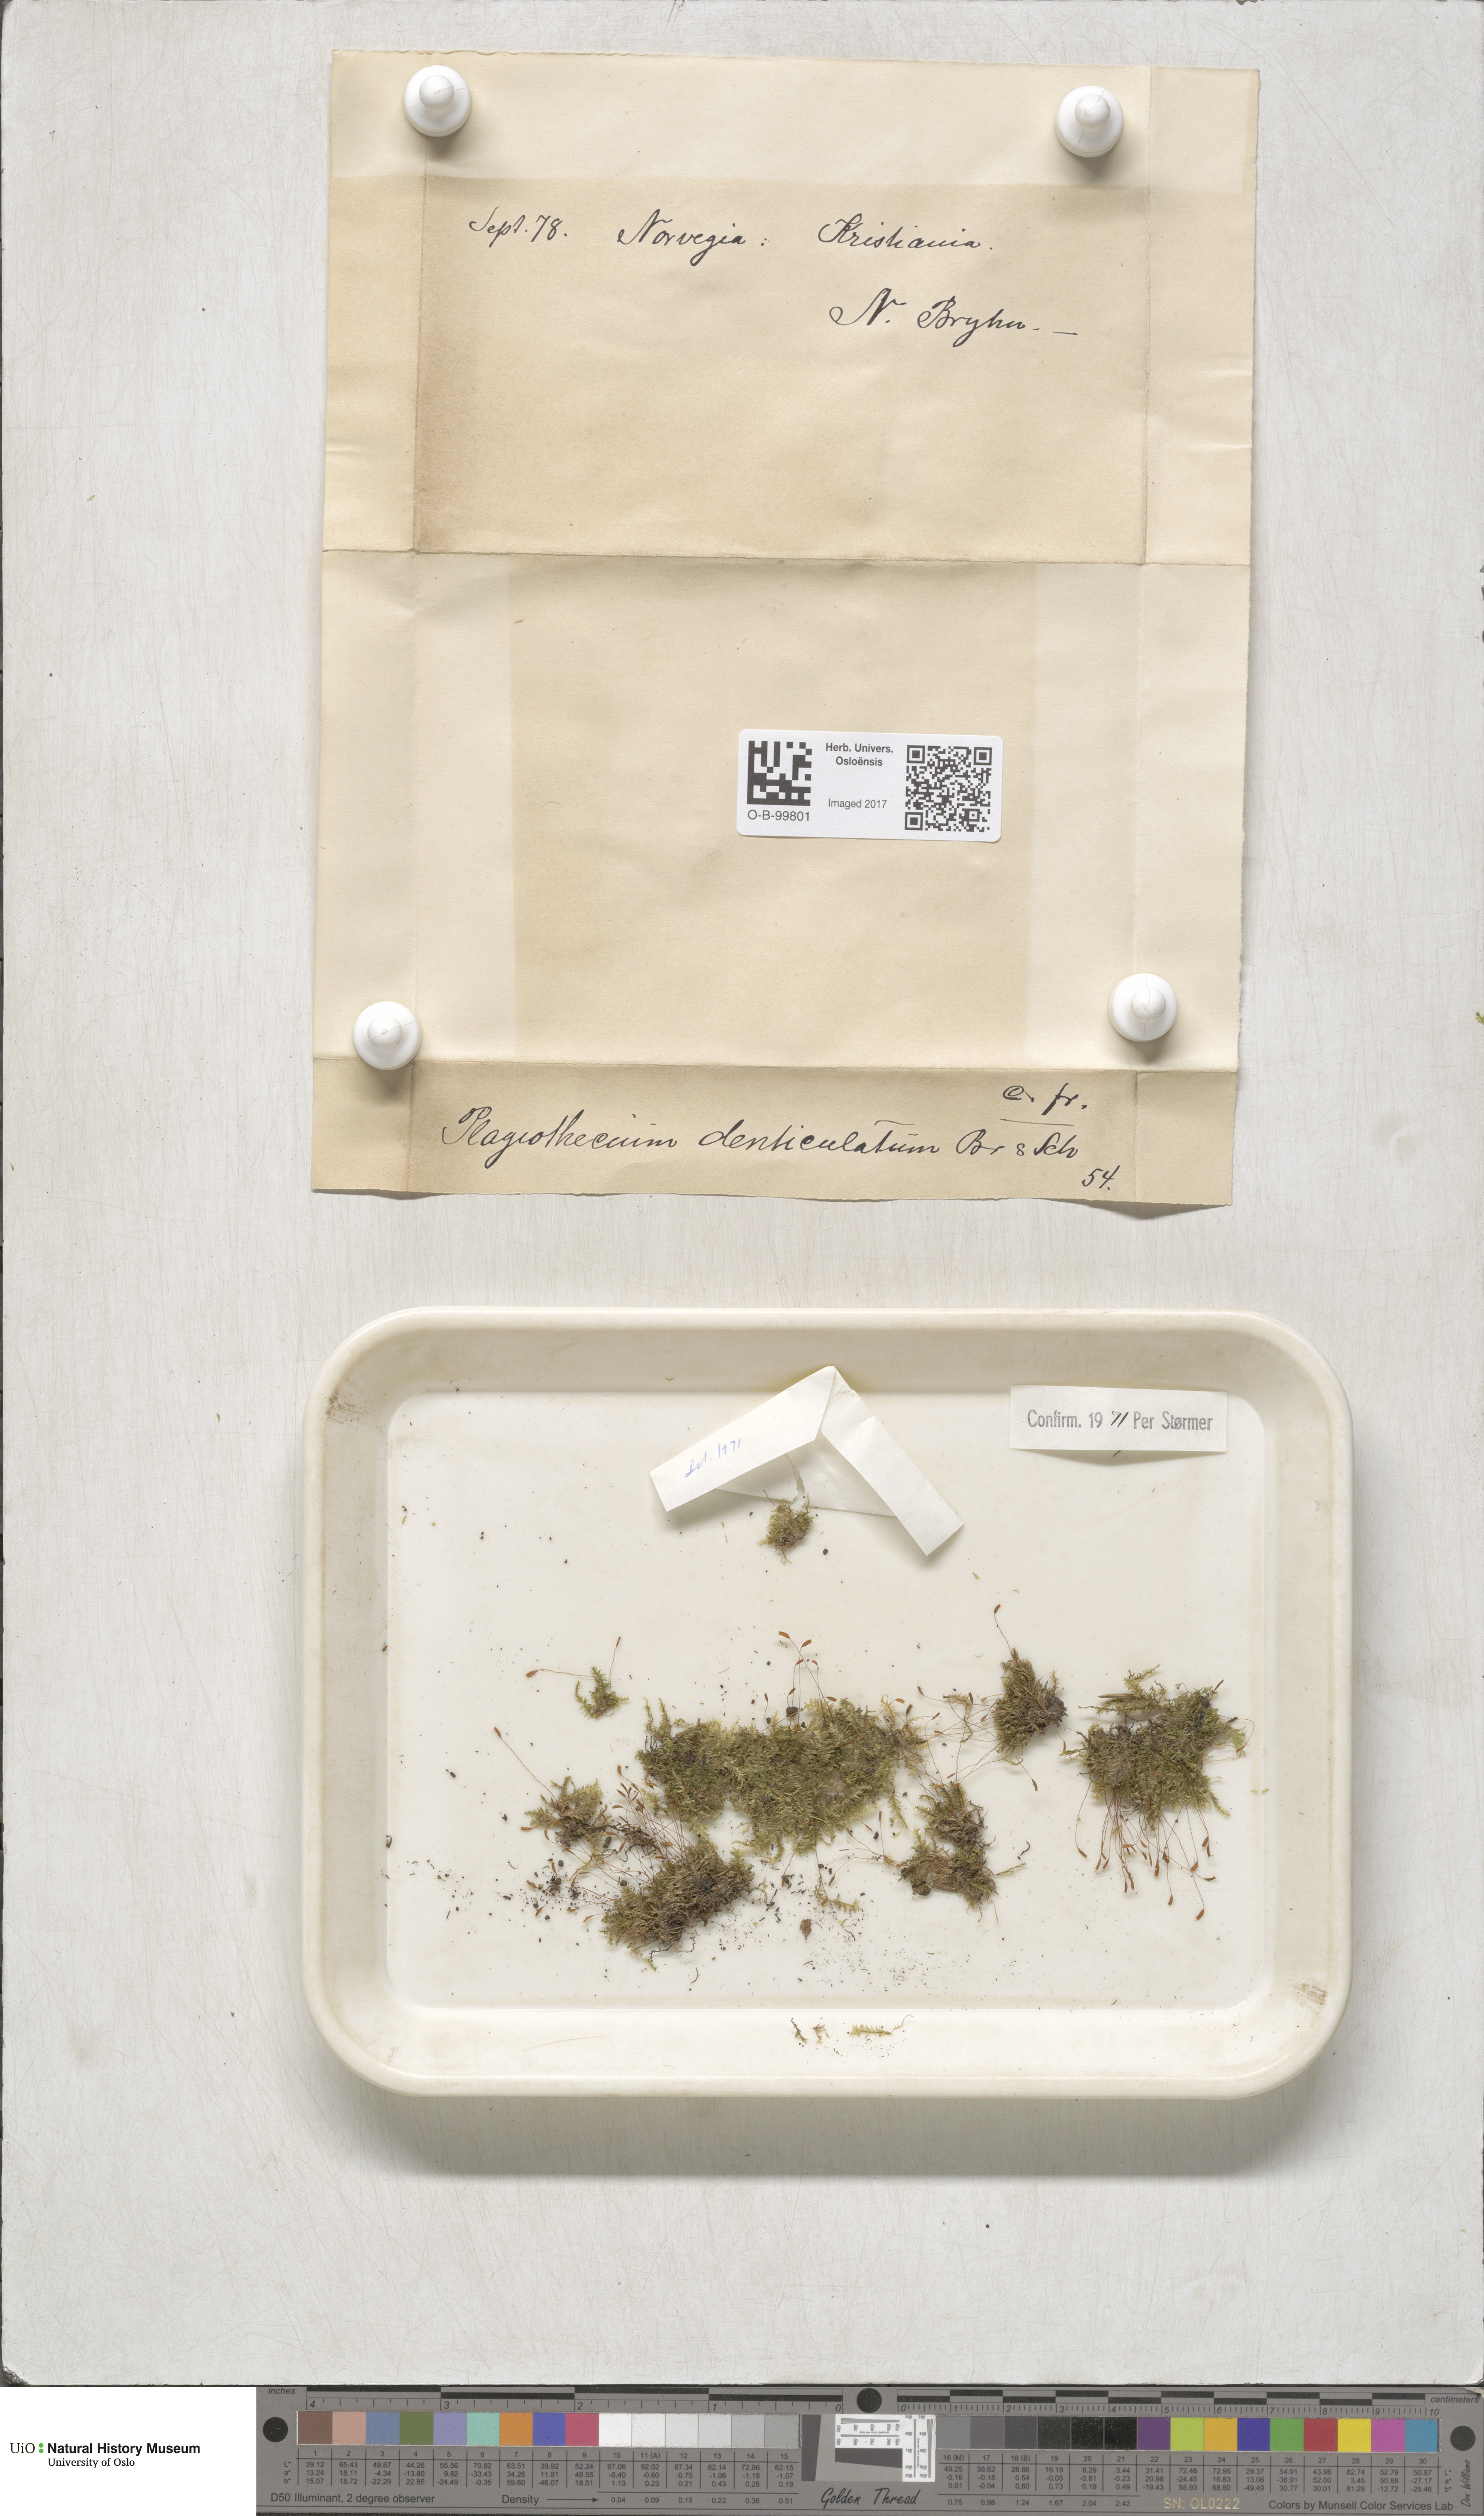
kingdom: Plantae
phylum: Bryophyta
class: Bryopsida
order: Hypnales
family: Plagiotheciaceae
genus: Plagiothecium
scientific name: Plagiothecium denticulatum
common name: Dented silk moss
